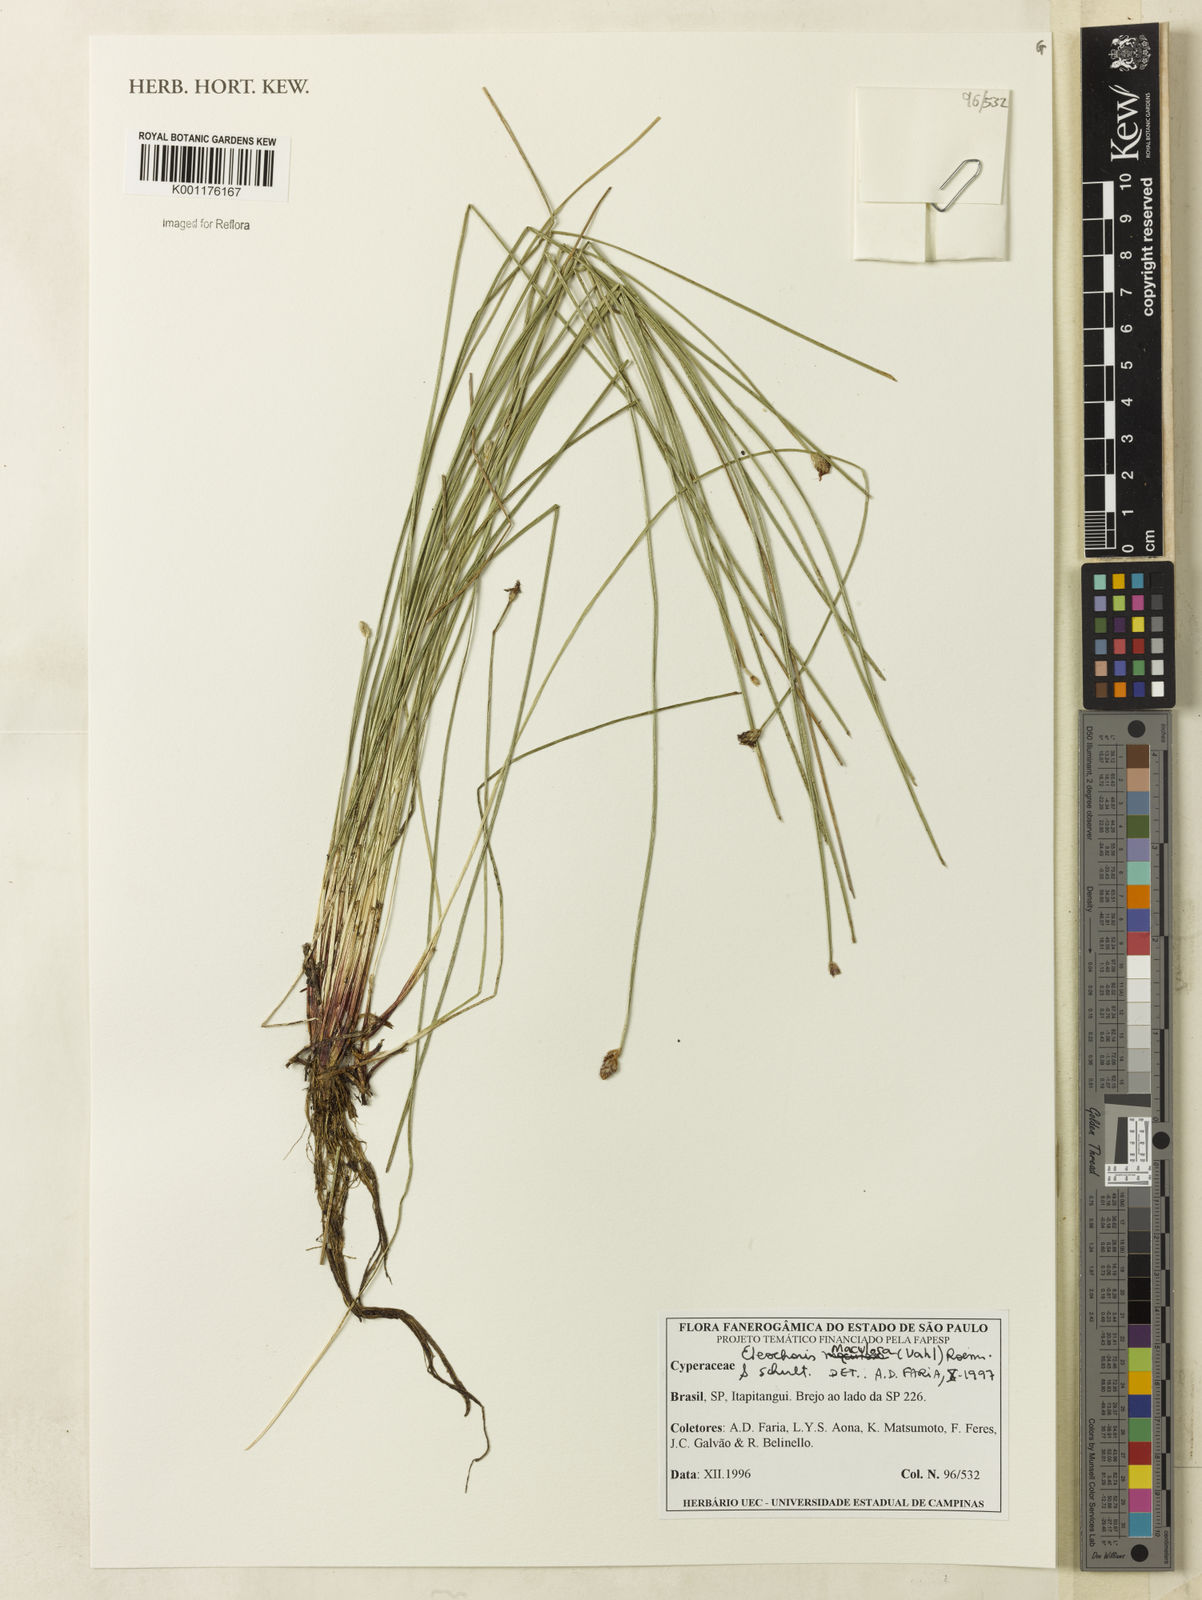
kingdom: Plantae
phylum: Tracheophyta
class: Liliopsida
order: Poales
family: Cyperaceae
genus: Eleocharis
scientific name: Eleocharis maculosa
